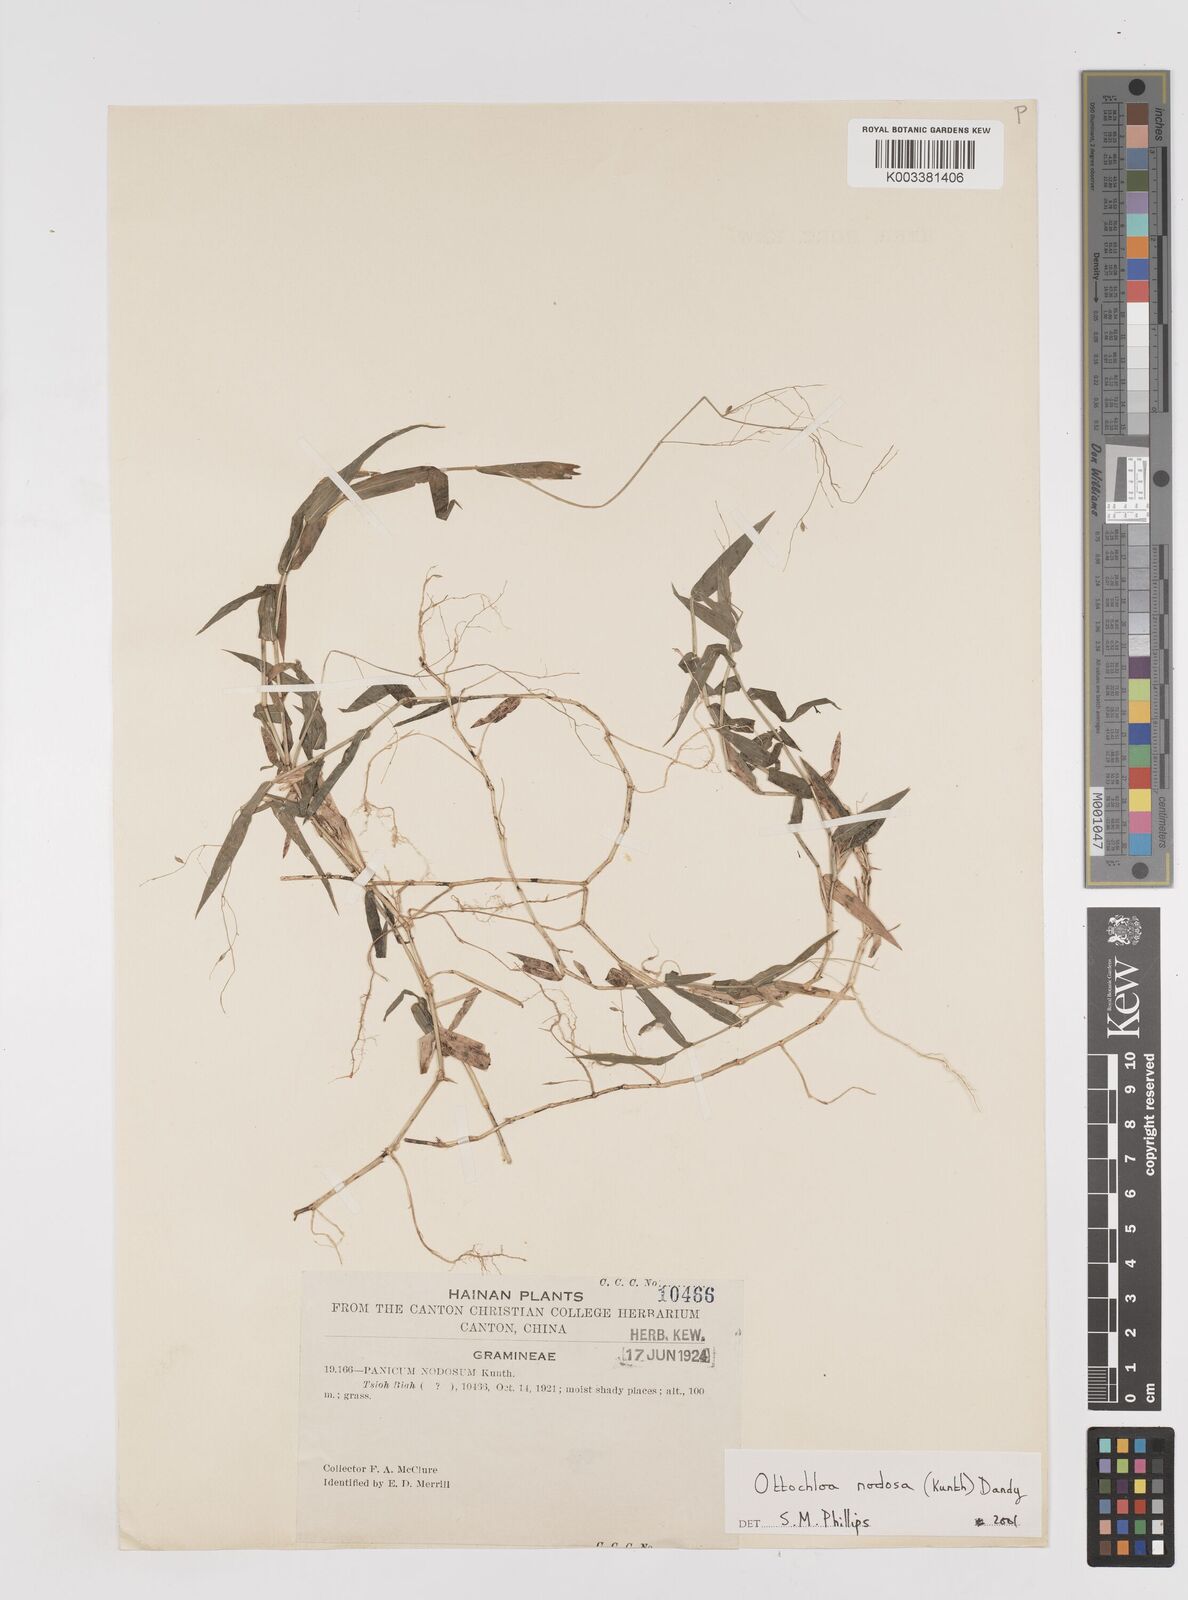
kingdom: Plantae
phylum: Tracheophyta
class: Liliopsida
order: Poales
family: Poaceae
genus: Ottochloa
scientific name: Ottochloa nodosa
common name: Slender-panic grass
